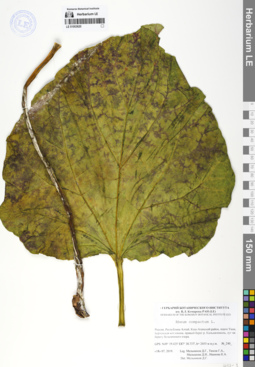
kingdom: Plantae
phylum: Tracheophyta
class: Magnoliopsida
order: Caryophyllales
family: Polygonaceae
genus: Rheum
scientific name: Rheum compactum
